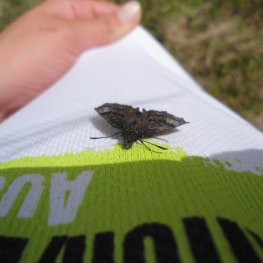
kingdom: Animalia
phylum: Arthropoda
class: Insecta
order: Lepidoptera
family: Hesperiidae
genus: Erynnis
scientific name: Erynnis icelus
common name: Dreamy Duskywing
